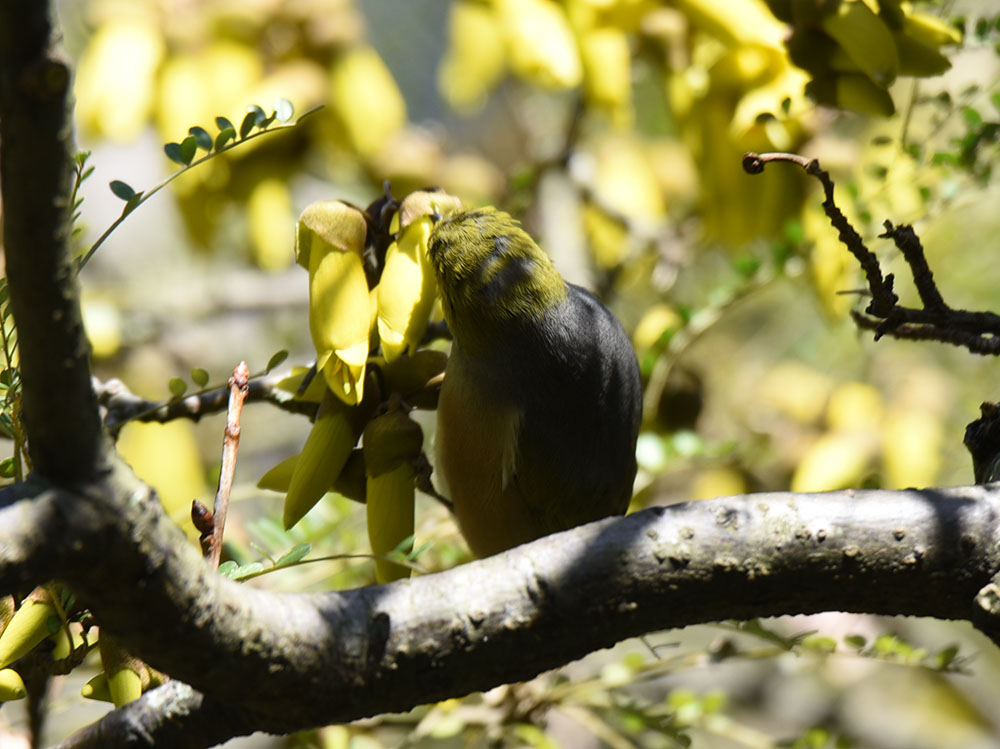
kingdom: Animalia
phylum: Chordata
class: Aves
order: Passeriformes
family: Zosteropidae
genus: Zosterops
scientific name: Zosterops lateralis
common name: Silvereye
